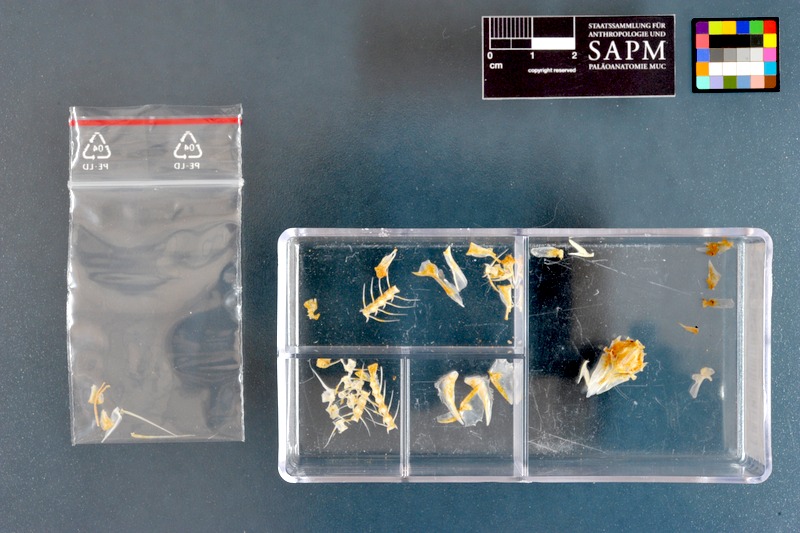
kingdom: Animalia
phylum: Chordata
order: Perciformes
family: Mullidae
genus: Parupeneus
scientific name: Parupeneus forsskali
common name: Red sea goatfish
